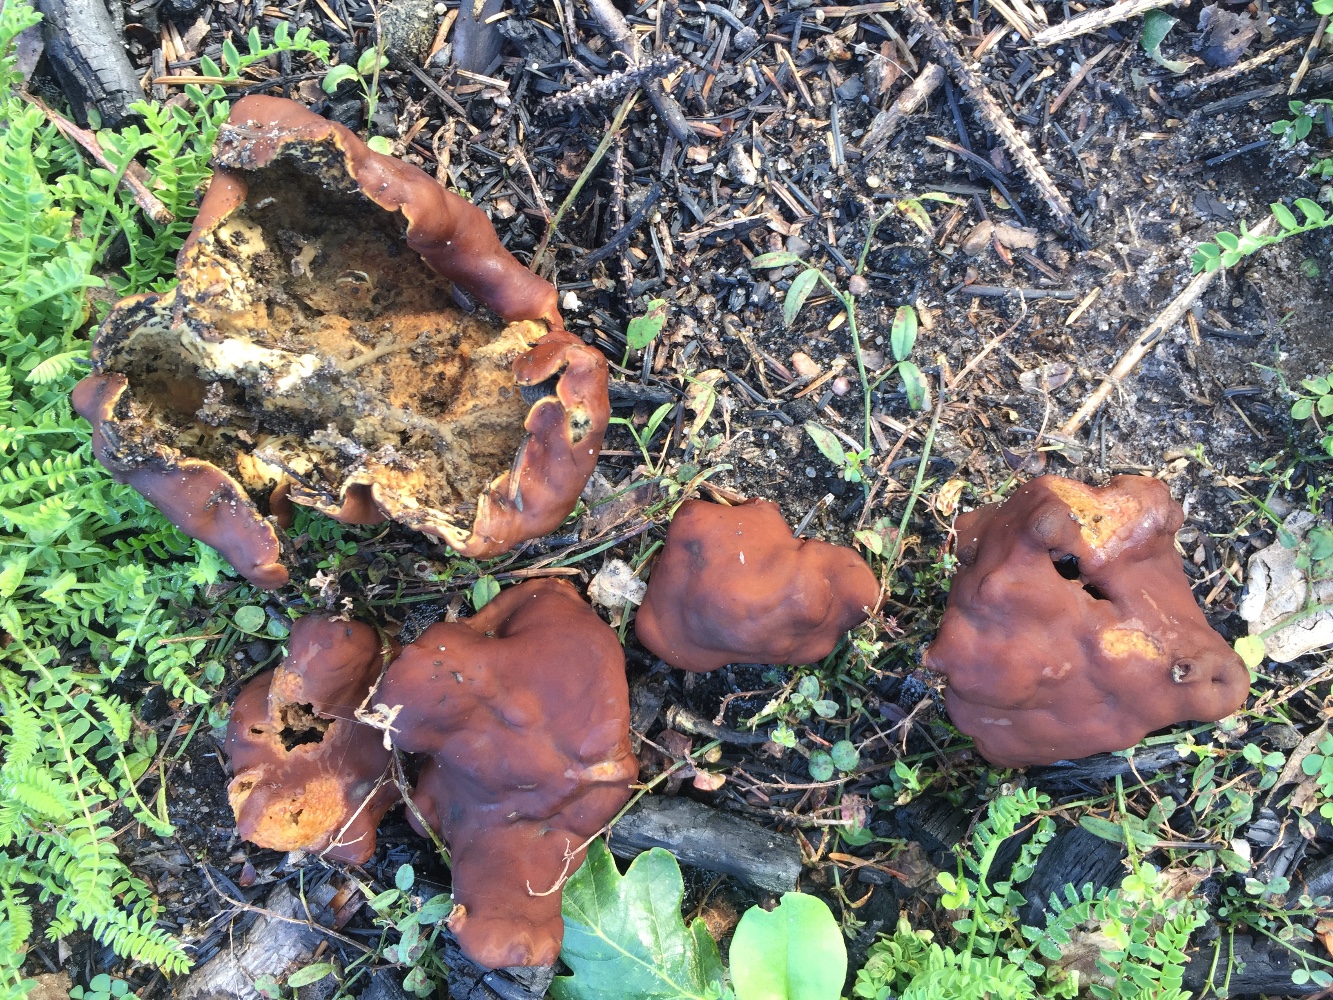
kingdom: Fungi
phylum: Ascomycota
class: Pezizomycetes
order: Pezizales
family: Rhizinaceae
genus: Rhizina
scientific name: Rhizina undulata
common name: rodmorkel
